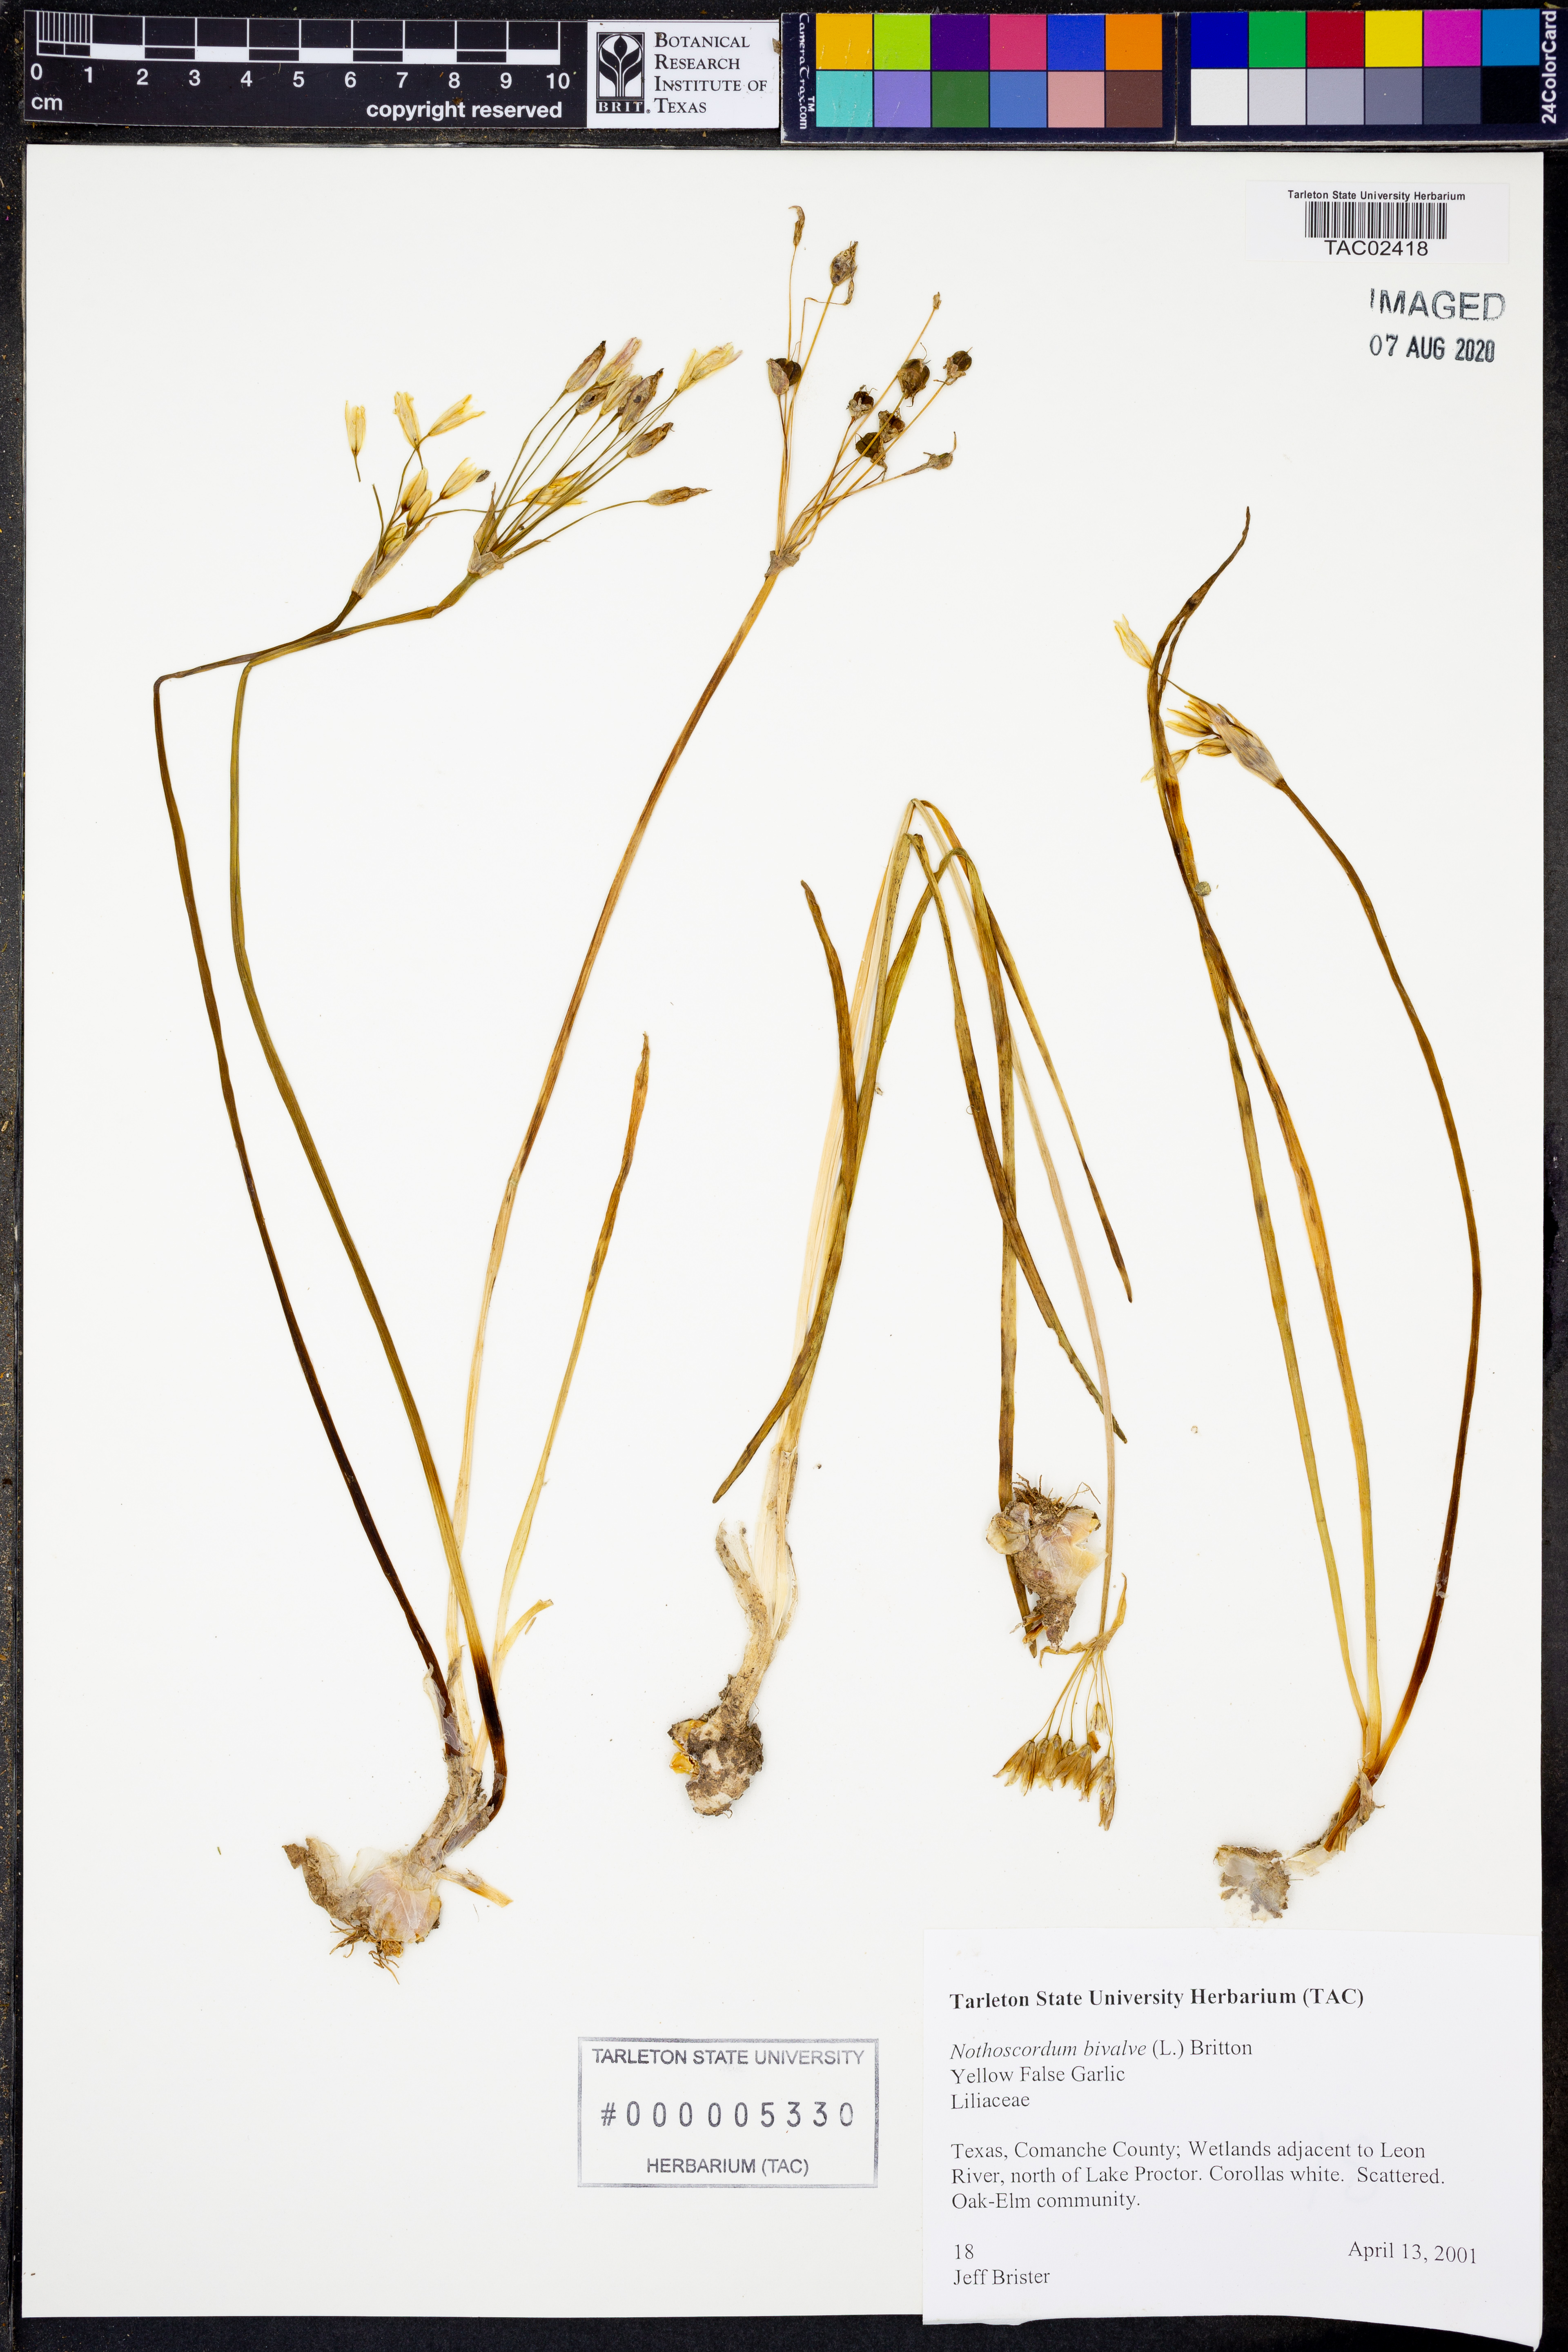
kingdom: Plantae
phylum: Tracheophyta
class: Liliopsida
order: Asparagales
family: Amaryllidaceae
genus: Nothoscordum
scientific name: Nothoscordum bivalve
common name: Crow-poison
